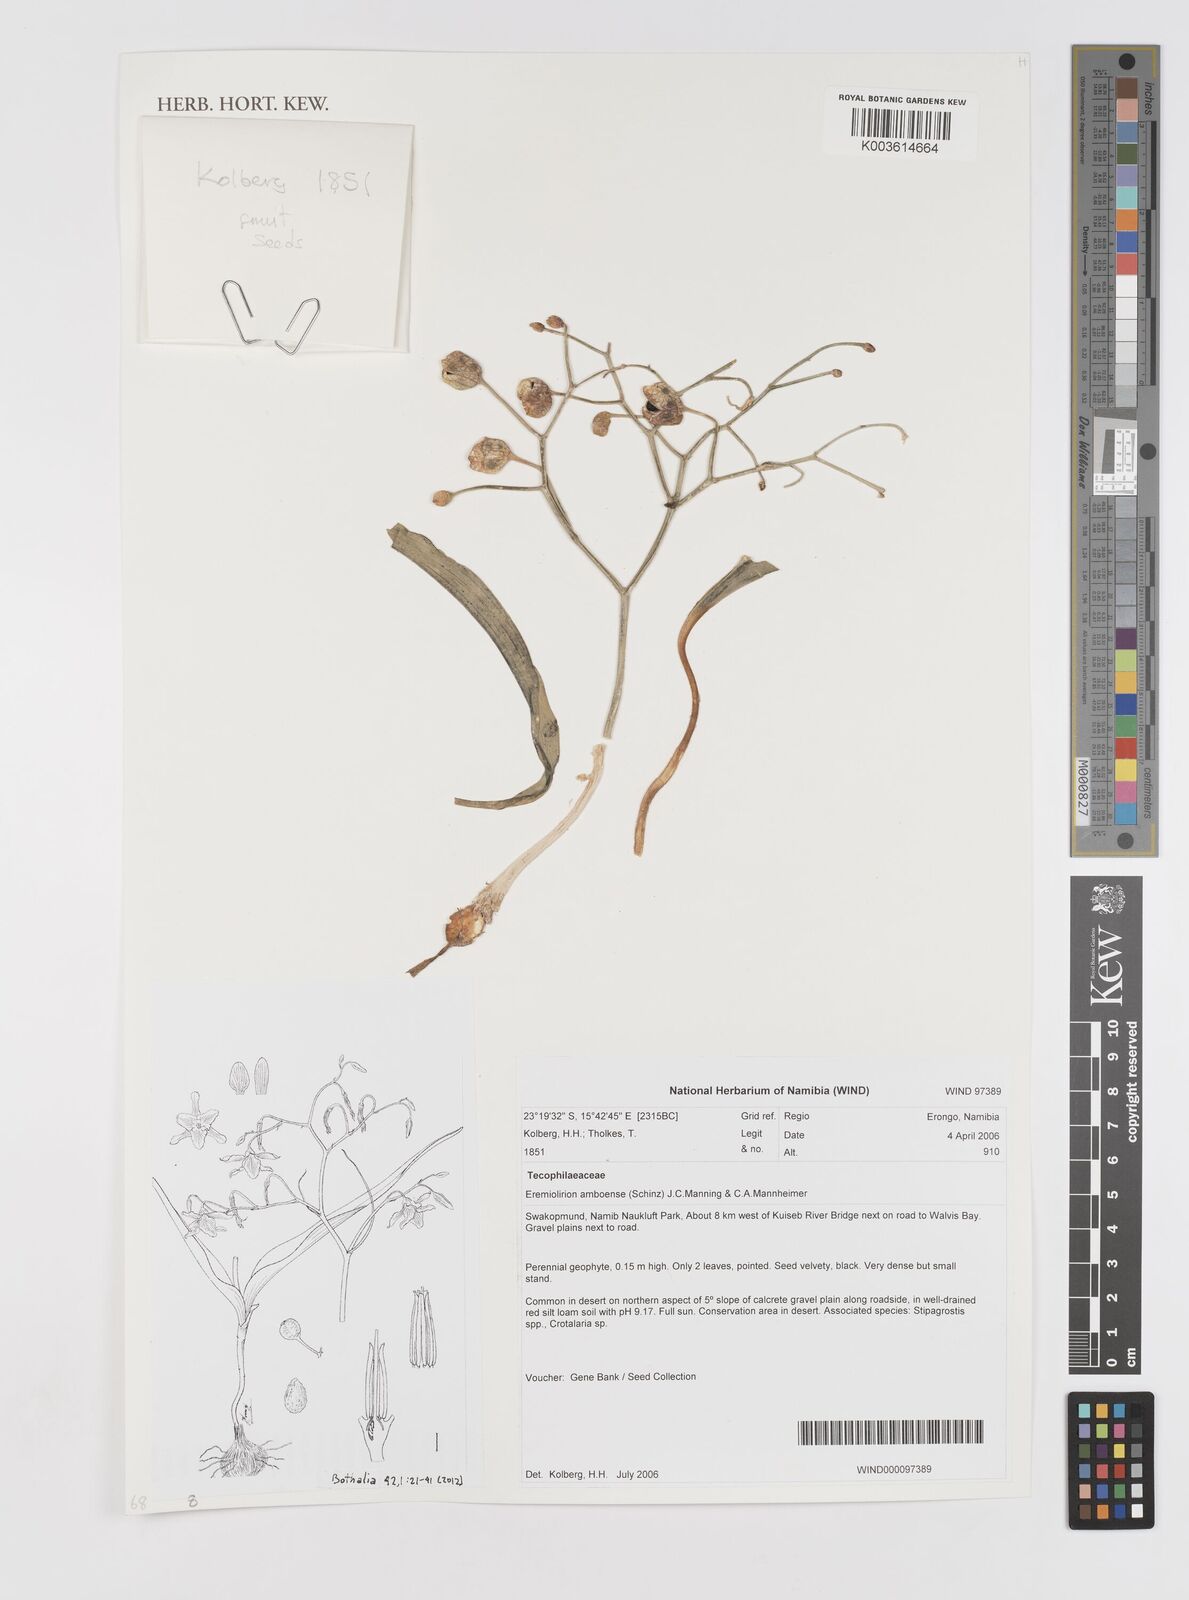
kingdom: Plantae
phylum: Tracheophyta
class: Liliopsida
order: Asparagales
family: Tecophilaeaceae
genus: Eremiolirion
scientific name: Eremiolirion amboense
